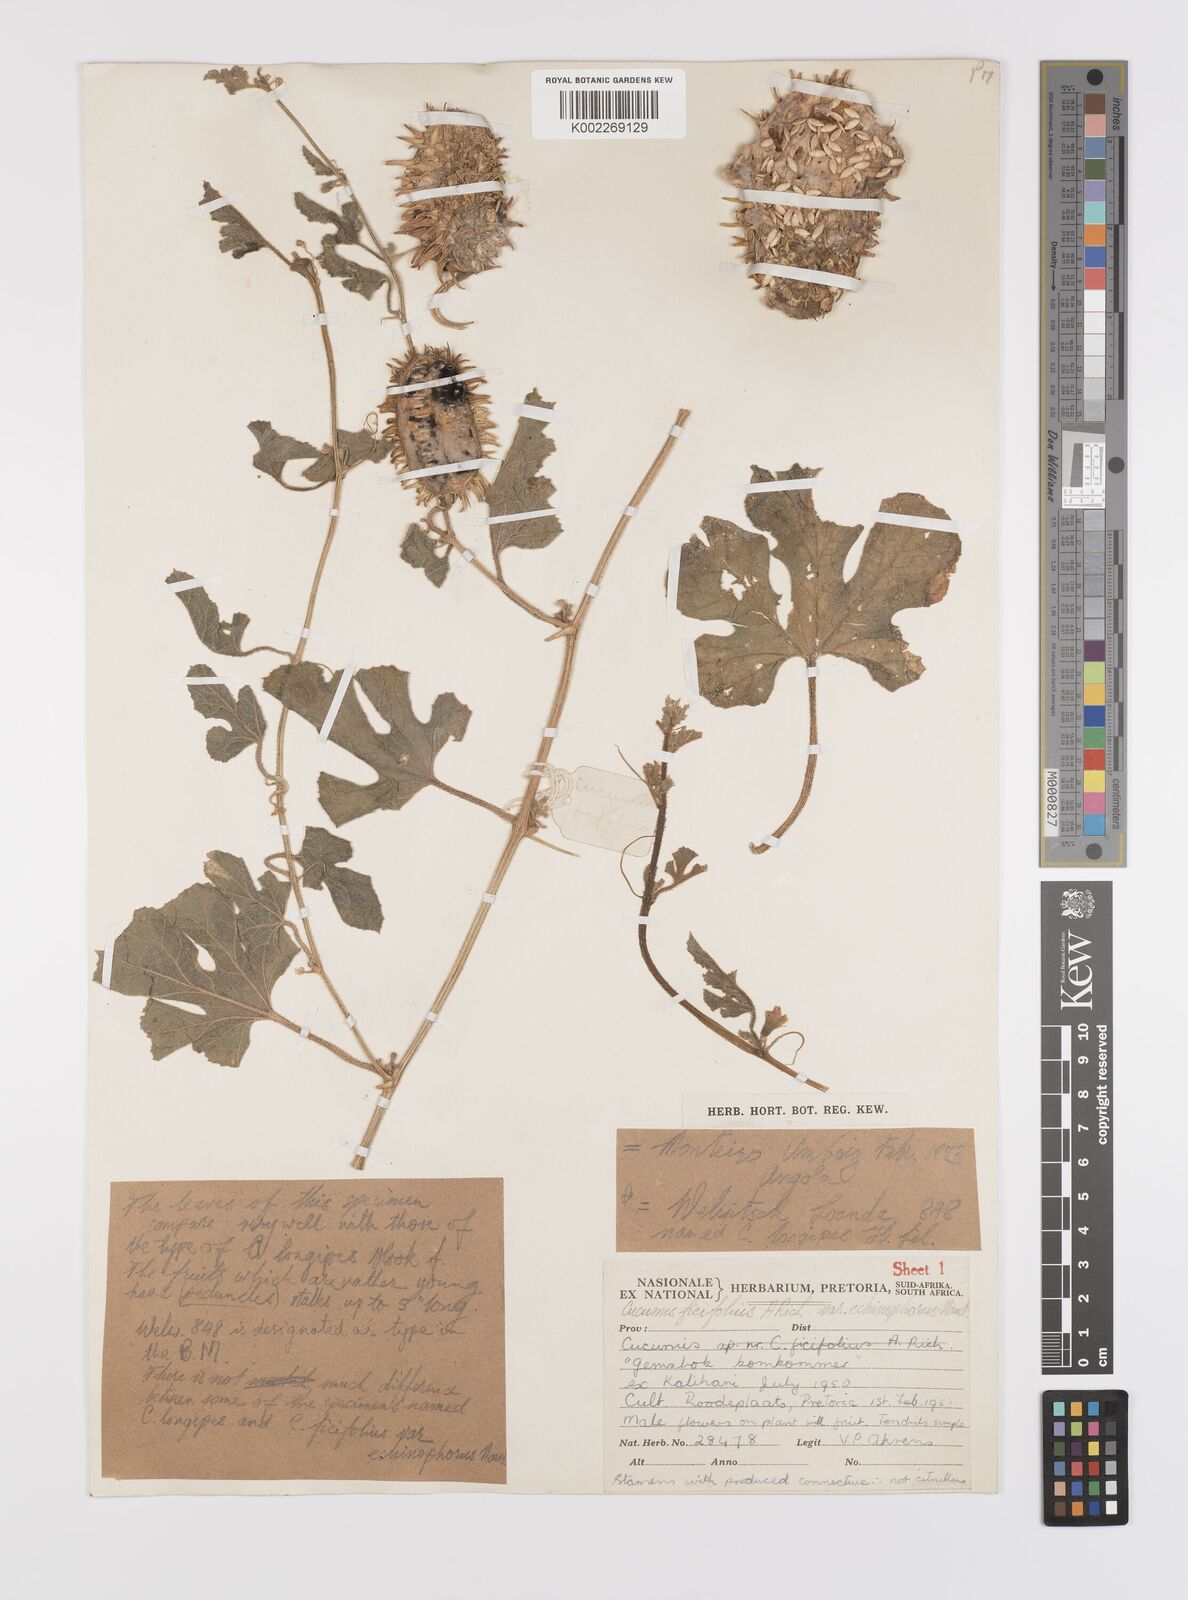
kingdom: Plantae
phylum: Tracheophyta
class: Magnoliopsida
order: Cucurbitales
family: Cucurbitaceae
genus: Cucumis
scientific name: Cucumis africanus
